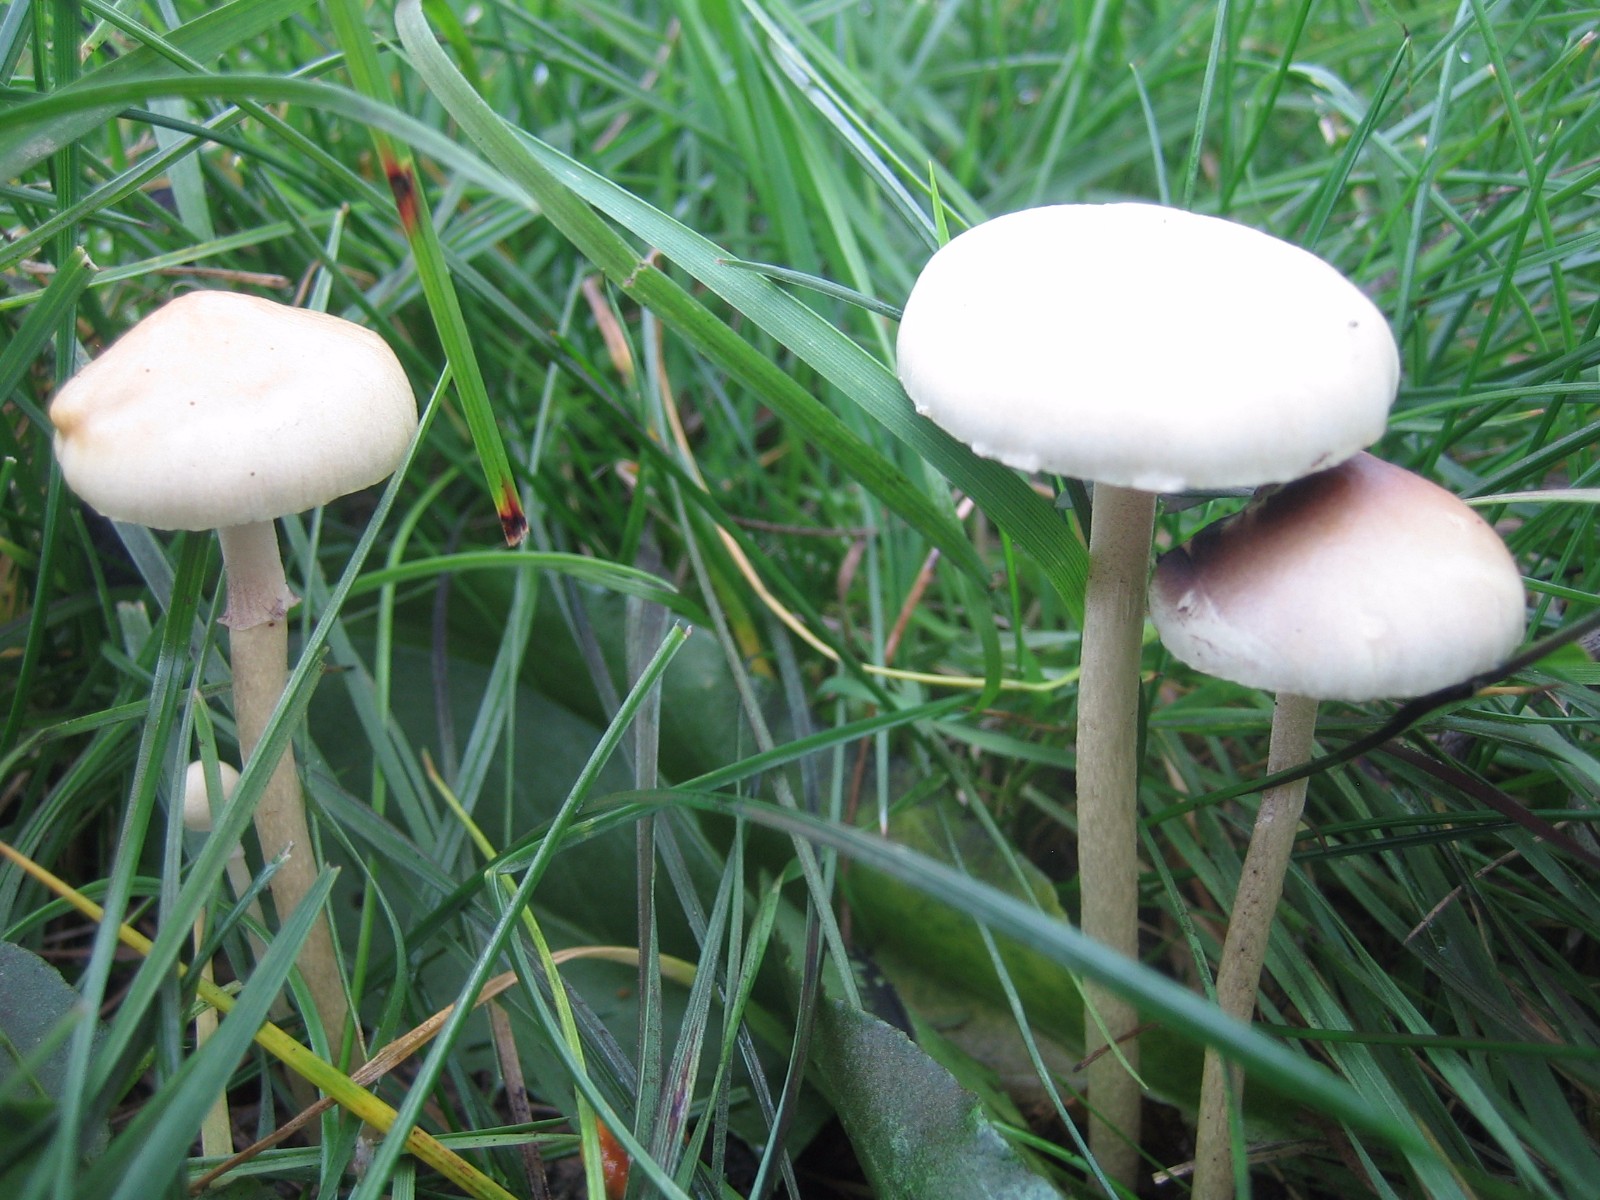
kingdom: Fungi
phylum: Basidiomycota
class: Agaricomycetes
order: Agaricales
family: Strophariaceae
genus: Protostropharia
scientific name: Protostropharia semiglobata
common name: halvkugleformet bredblad
